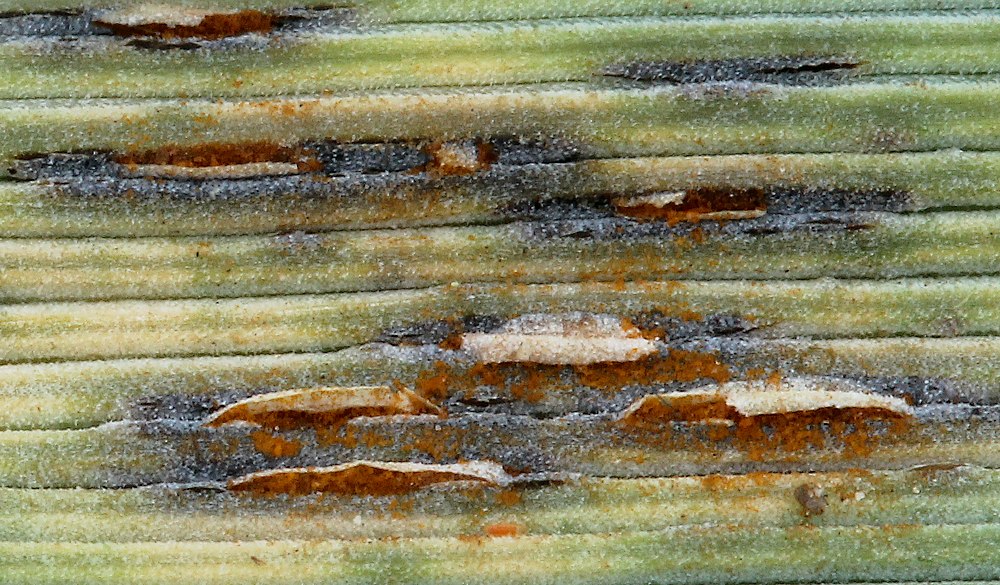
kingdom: Fungi
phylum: Basidiomycota
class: Pucciniomycetes
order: Pucciniales
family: Pucciniaceae
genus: Puccinia
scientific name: Puccinia elymi
